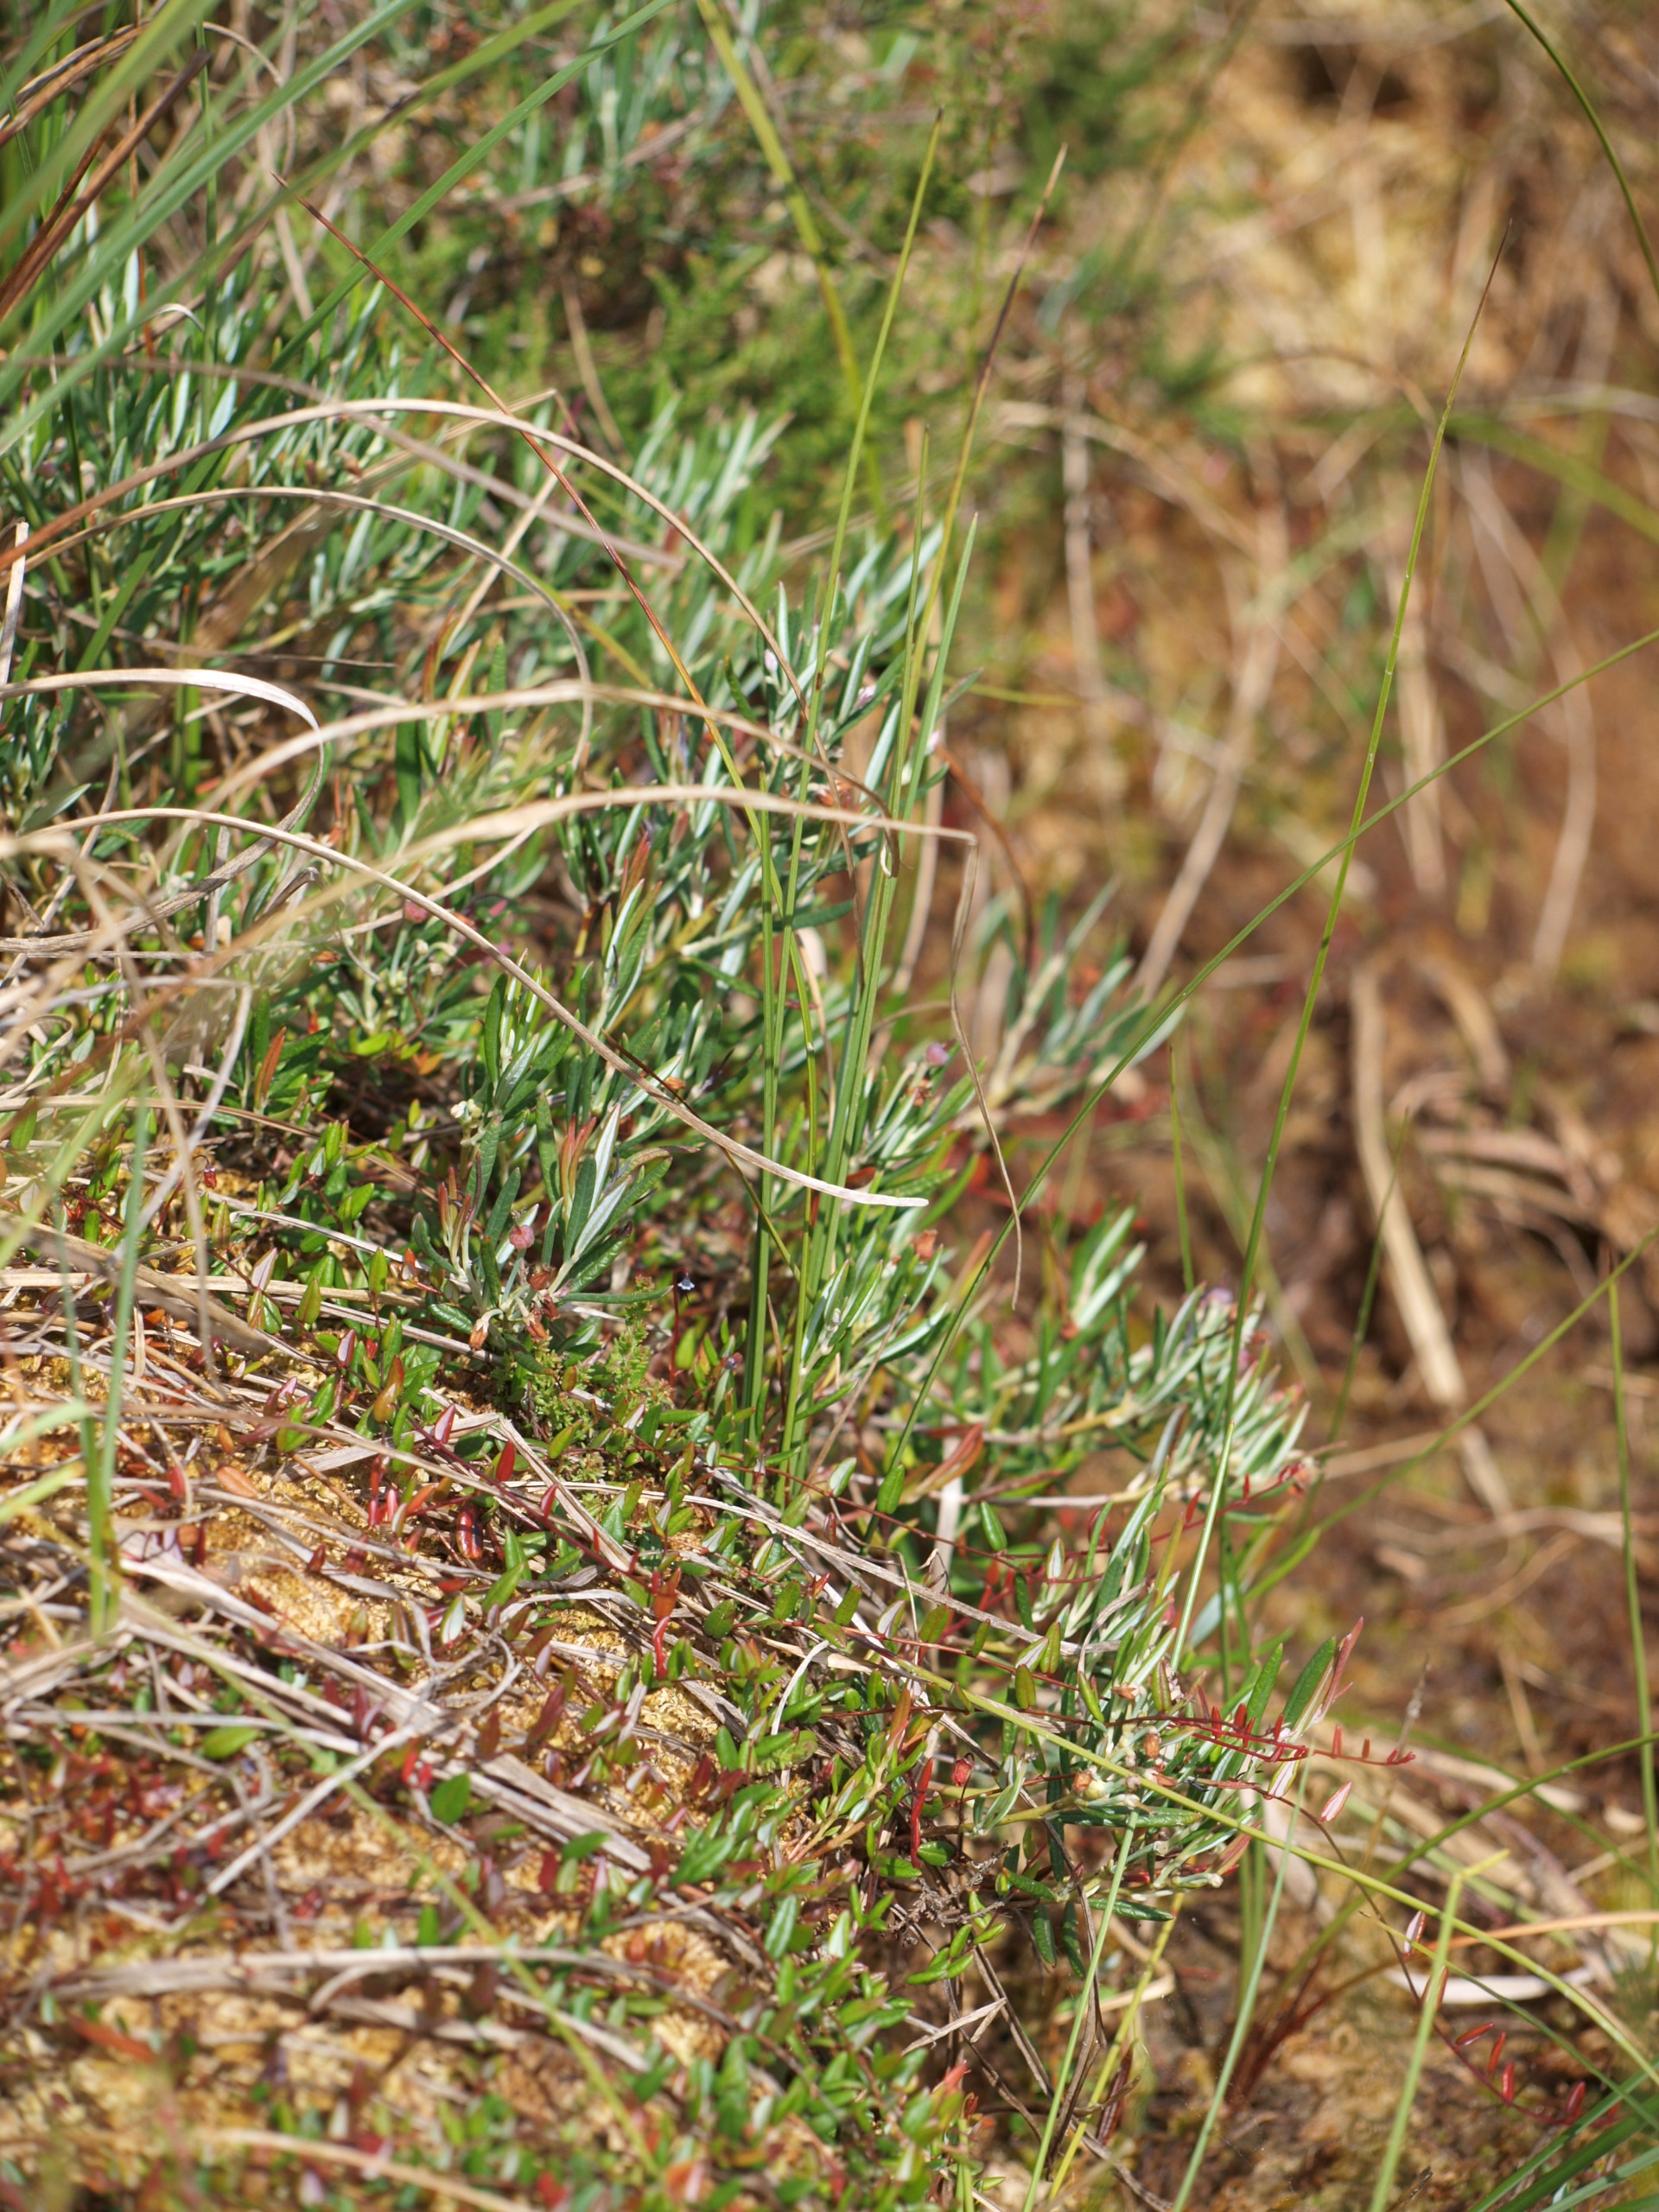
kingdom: Plantae
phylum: Tracheophyta
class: Magnoliopsida
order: Ericales
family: Ericaceae
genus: Andromeda
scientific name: Andromeda polifolia
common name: Rosmarinlyng
